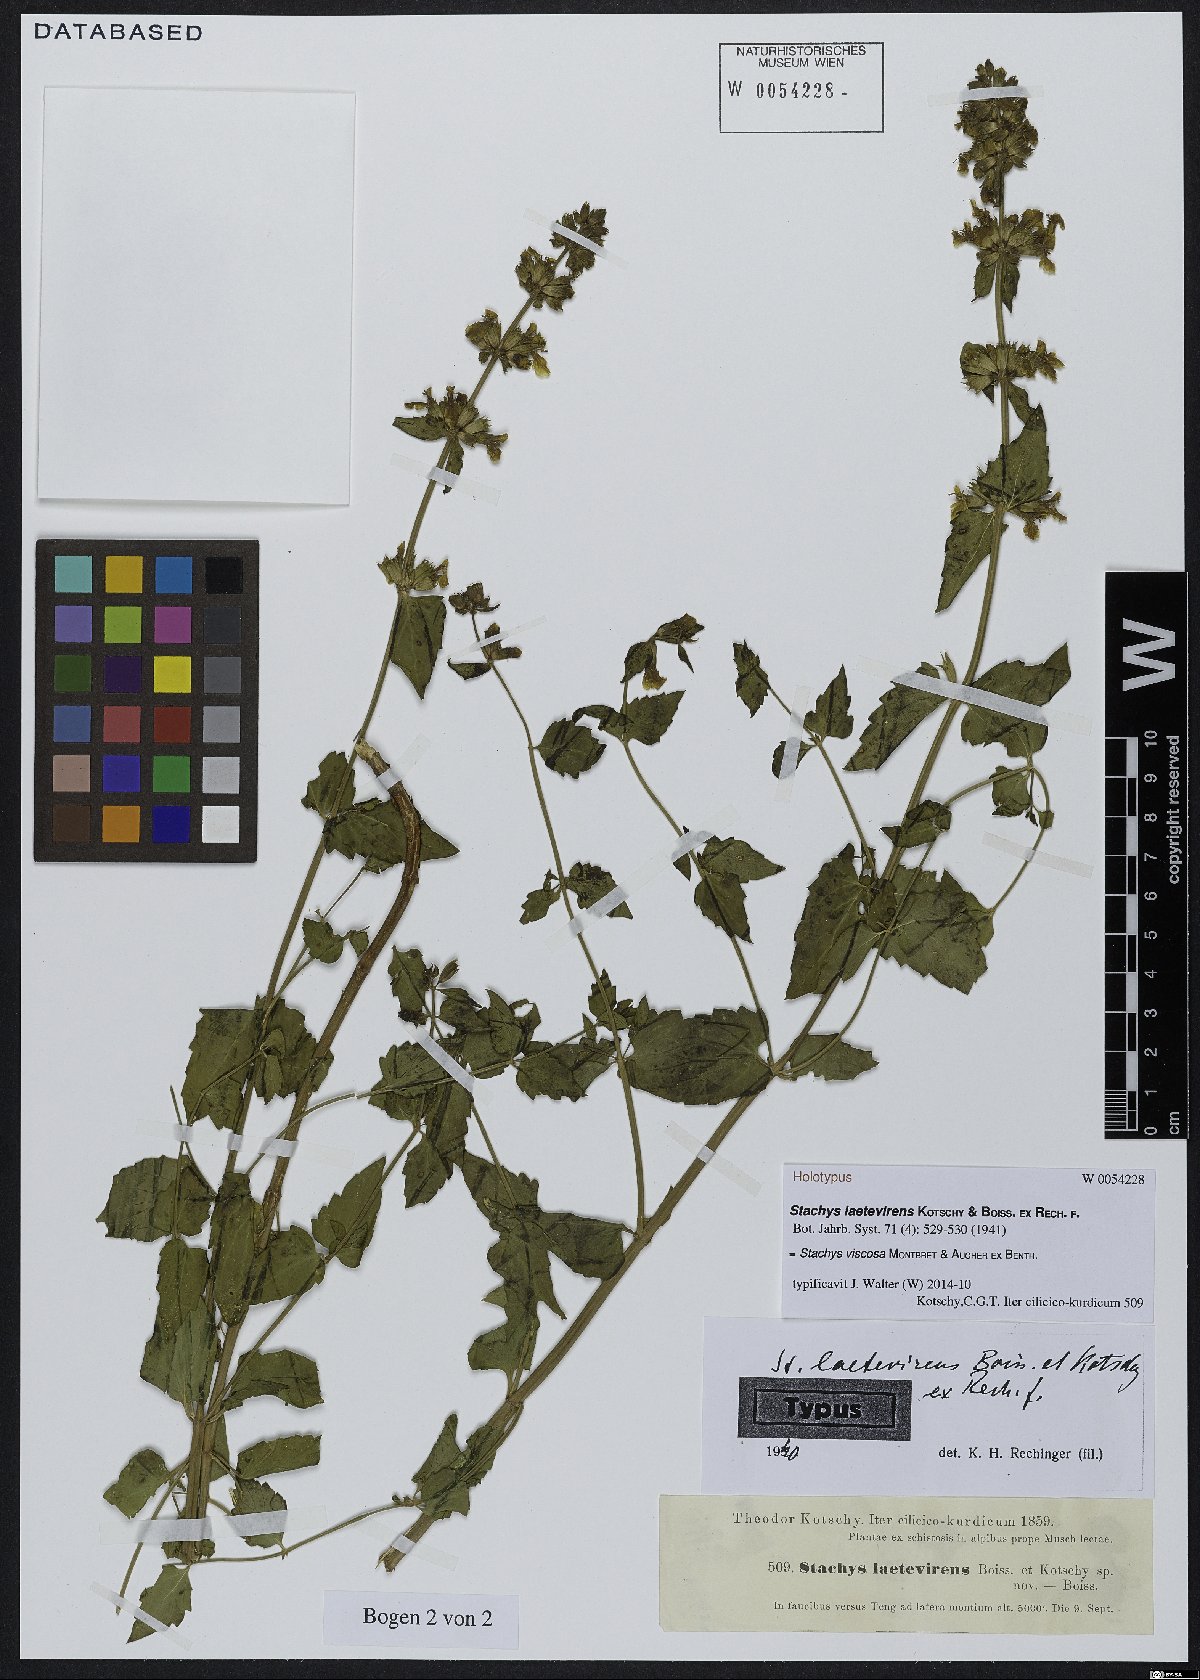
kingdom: Plantae
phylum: Tracheophyta
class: Magnoliopsida
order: Lamiales
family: Lamiaceae
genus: Stachys
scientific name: Stachys viscosa
